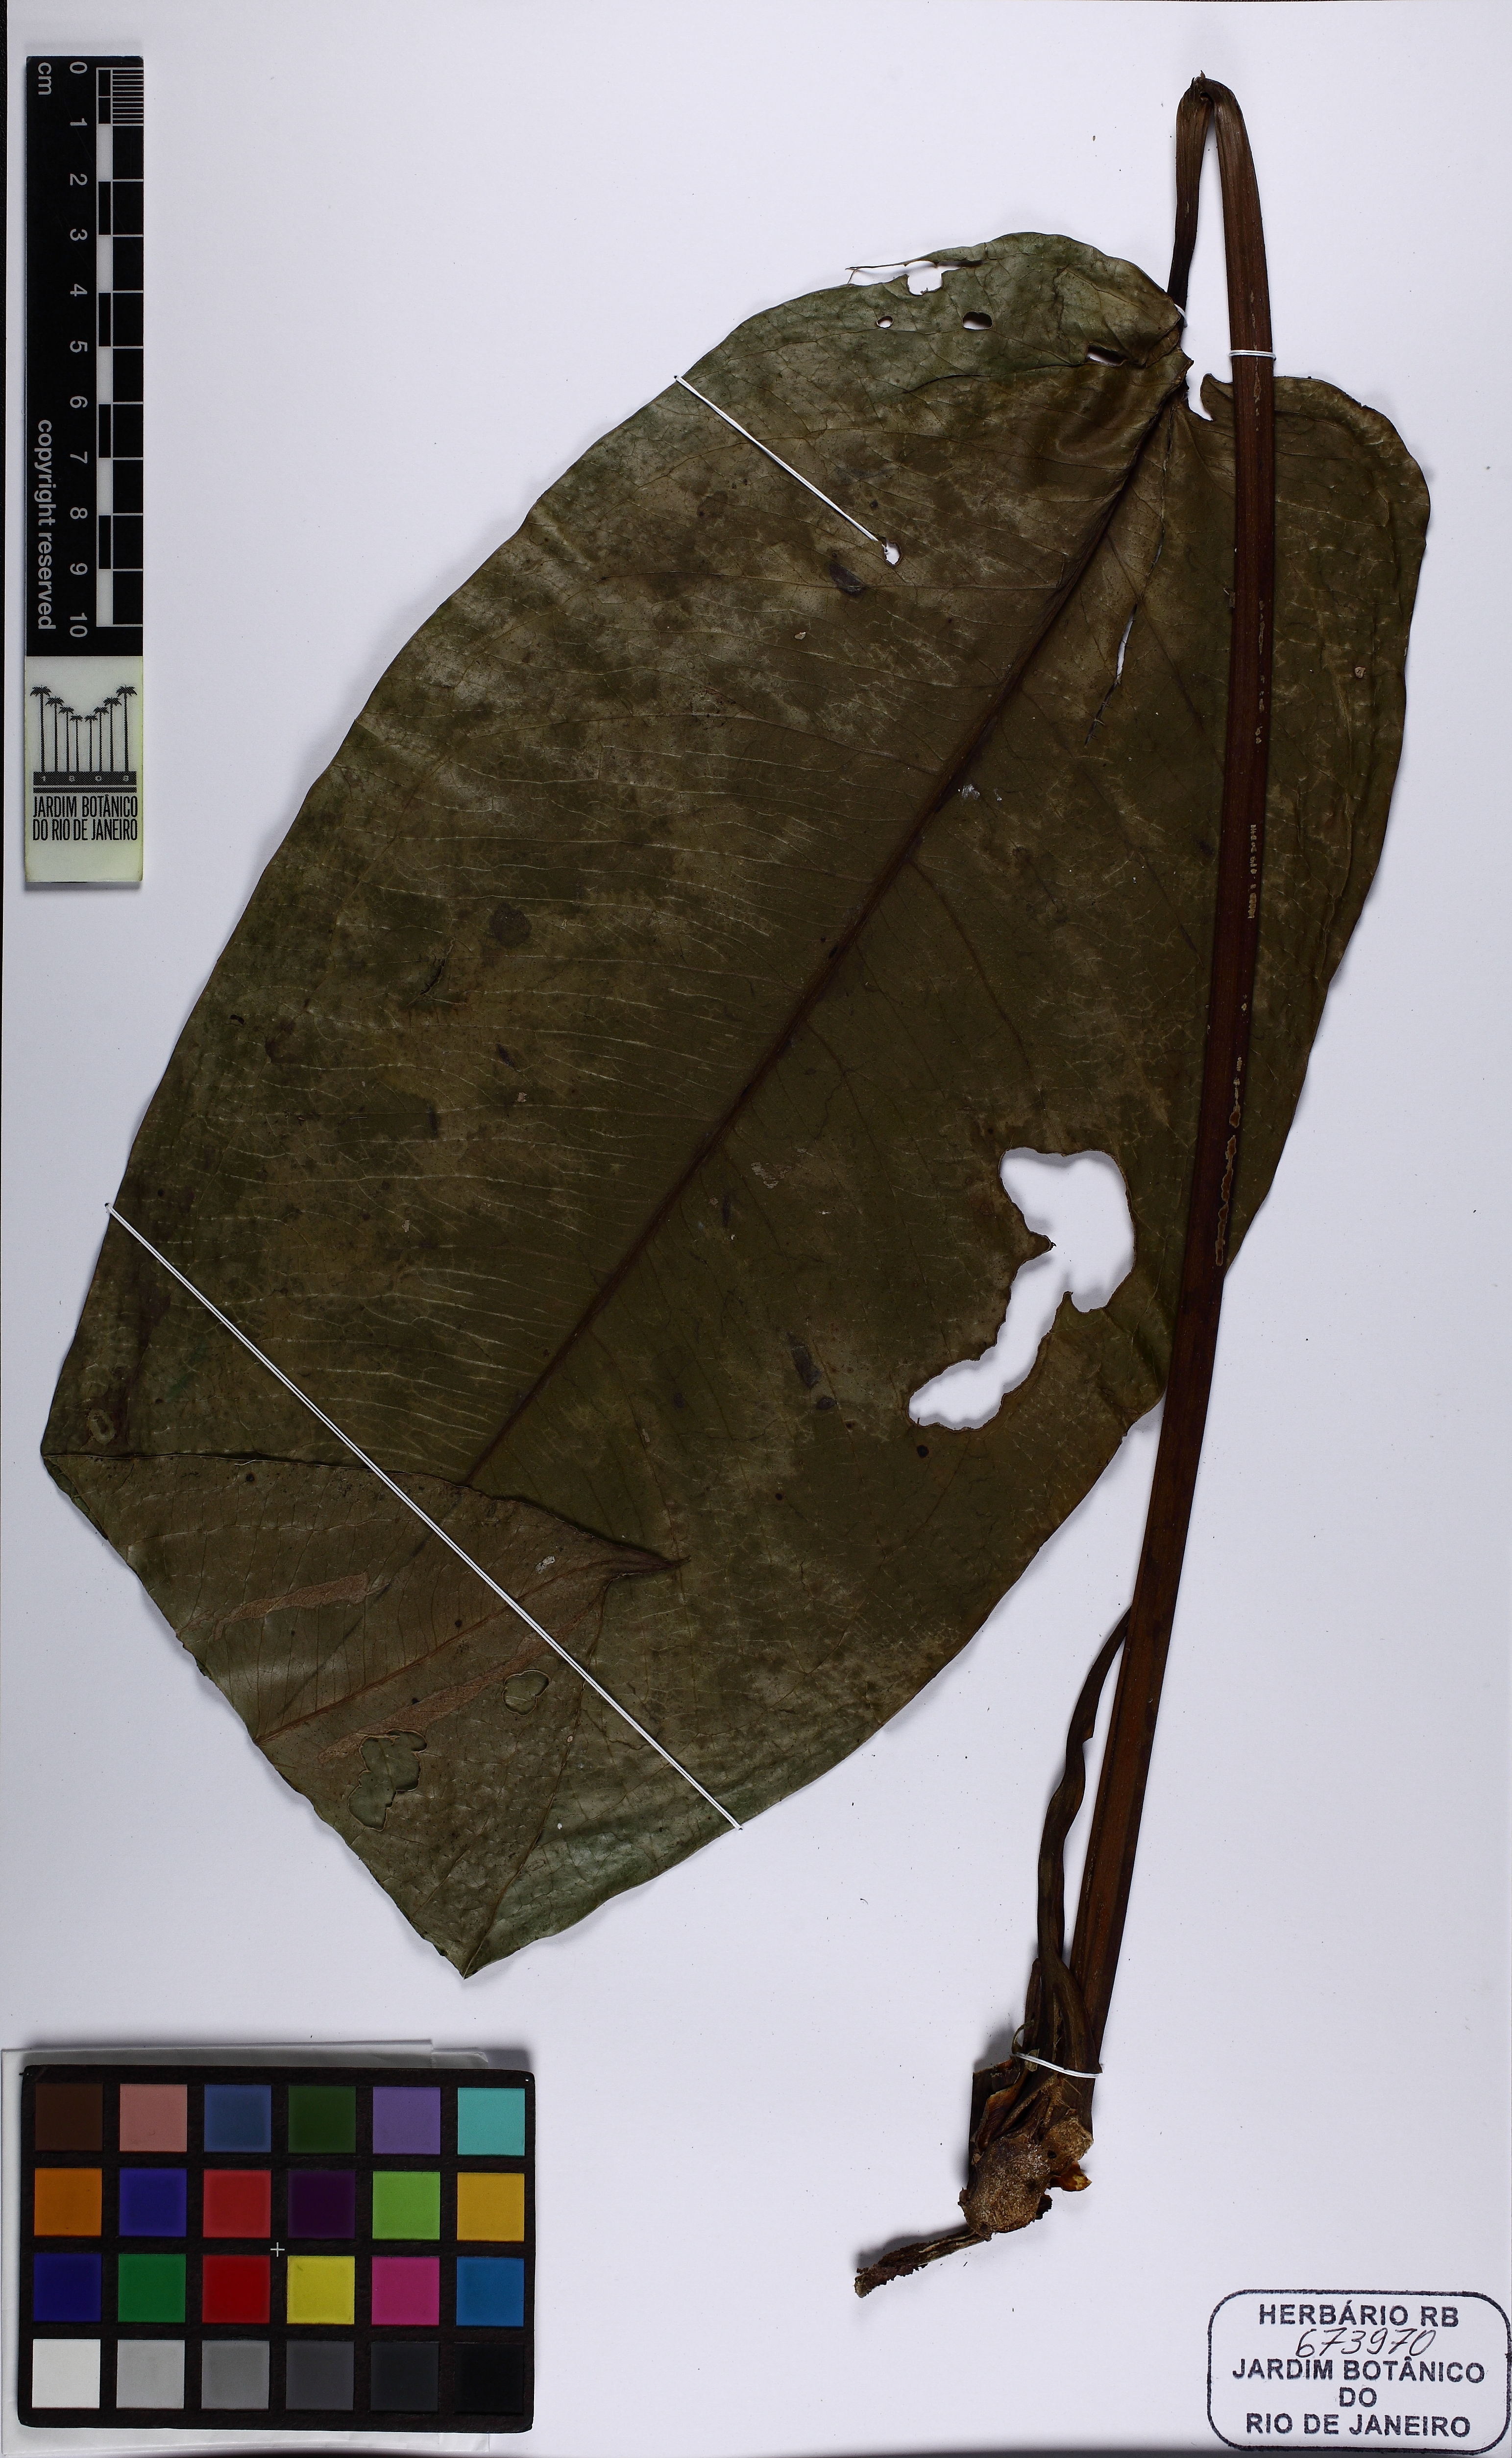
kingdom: Plantae
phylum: Tracheophyta
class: Liliopsida
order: Alismatales
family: Araceae
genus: Anthurium
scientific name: Anthurium ameliae
